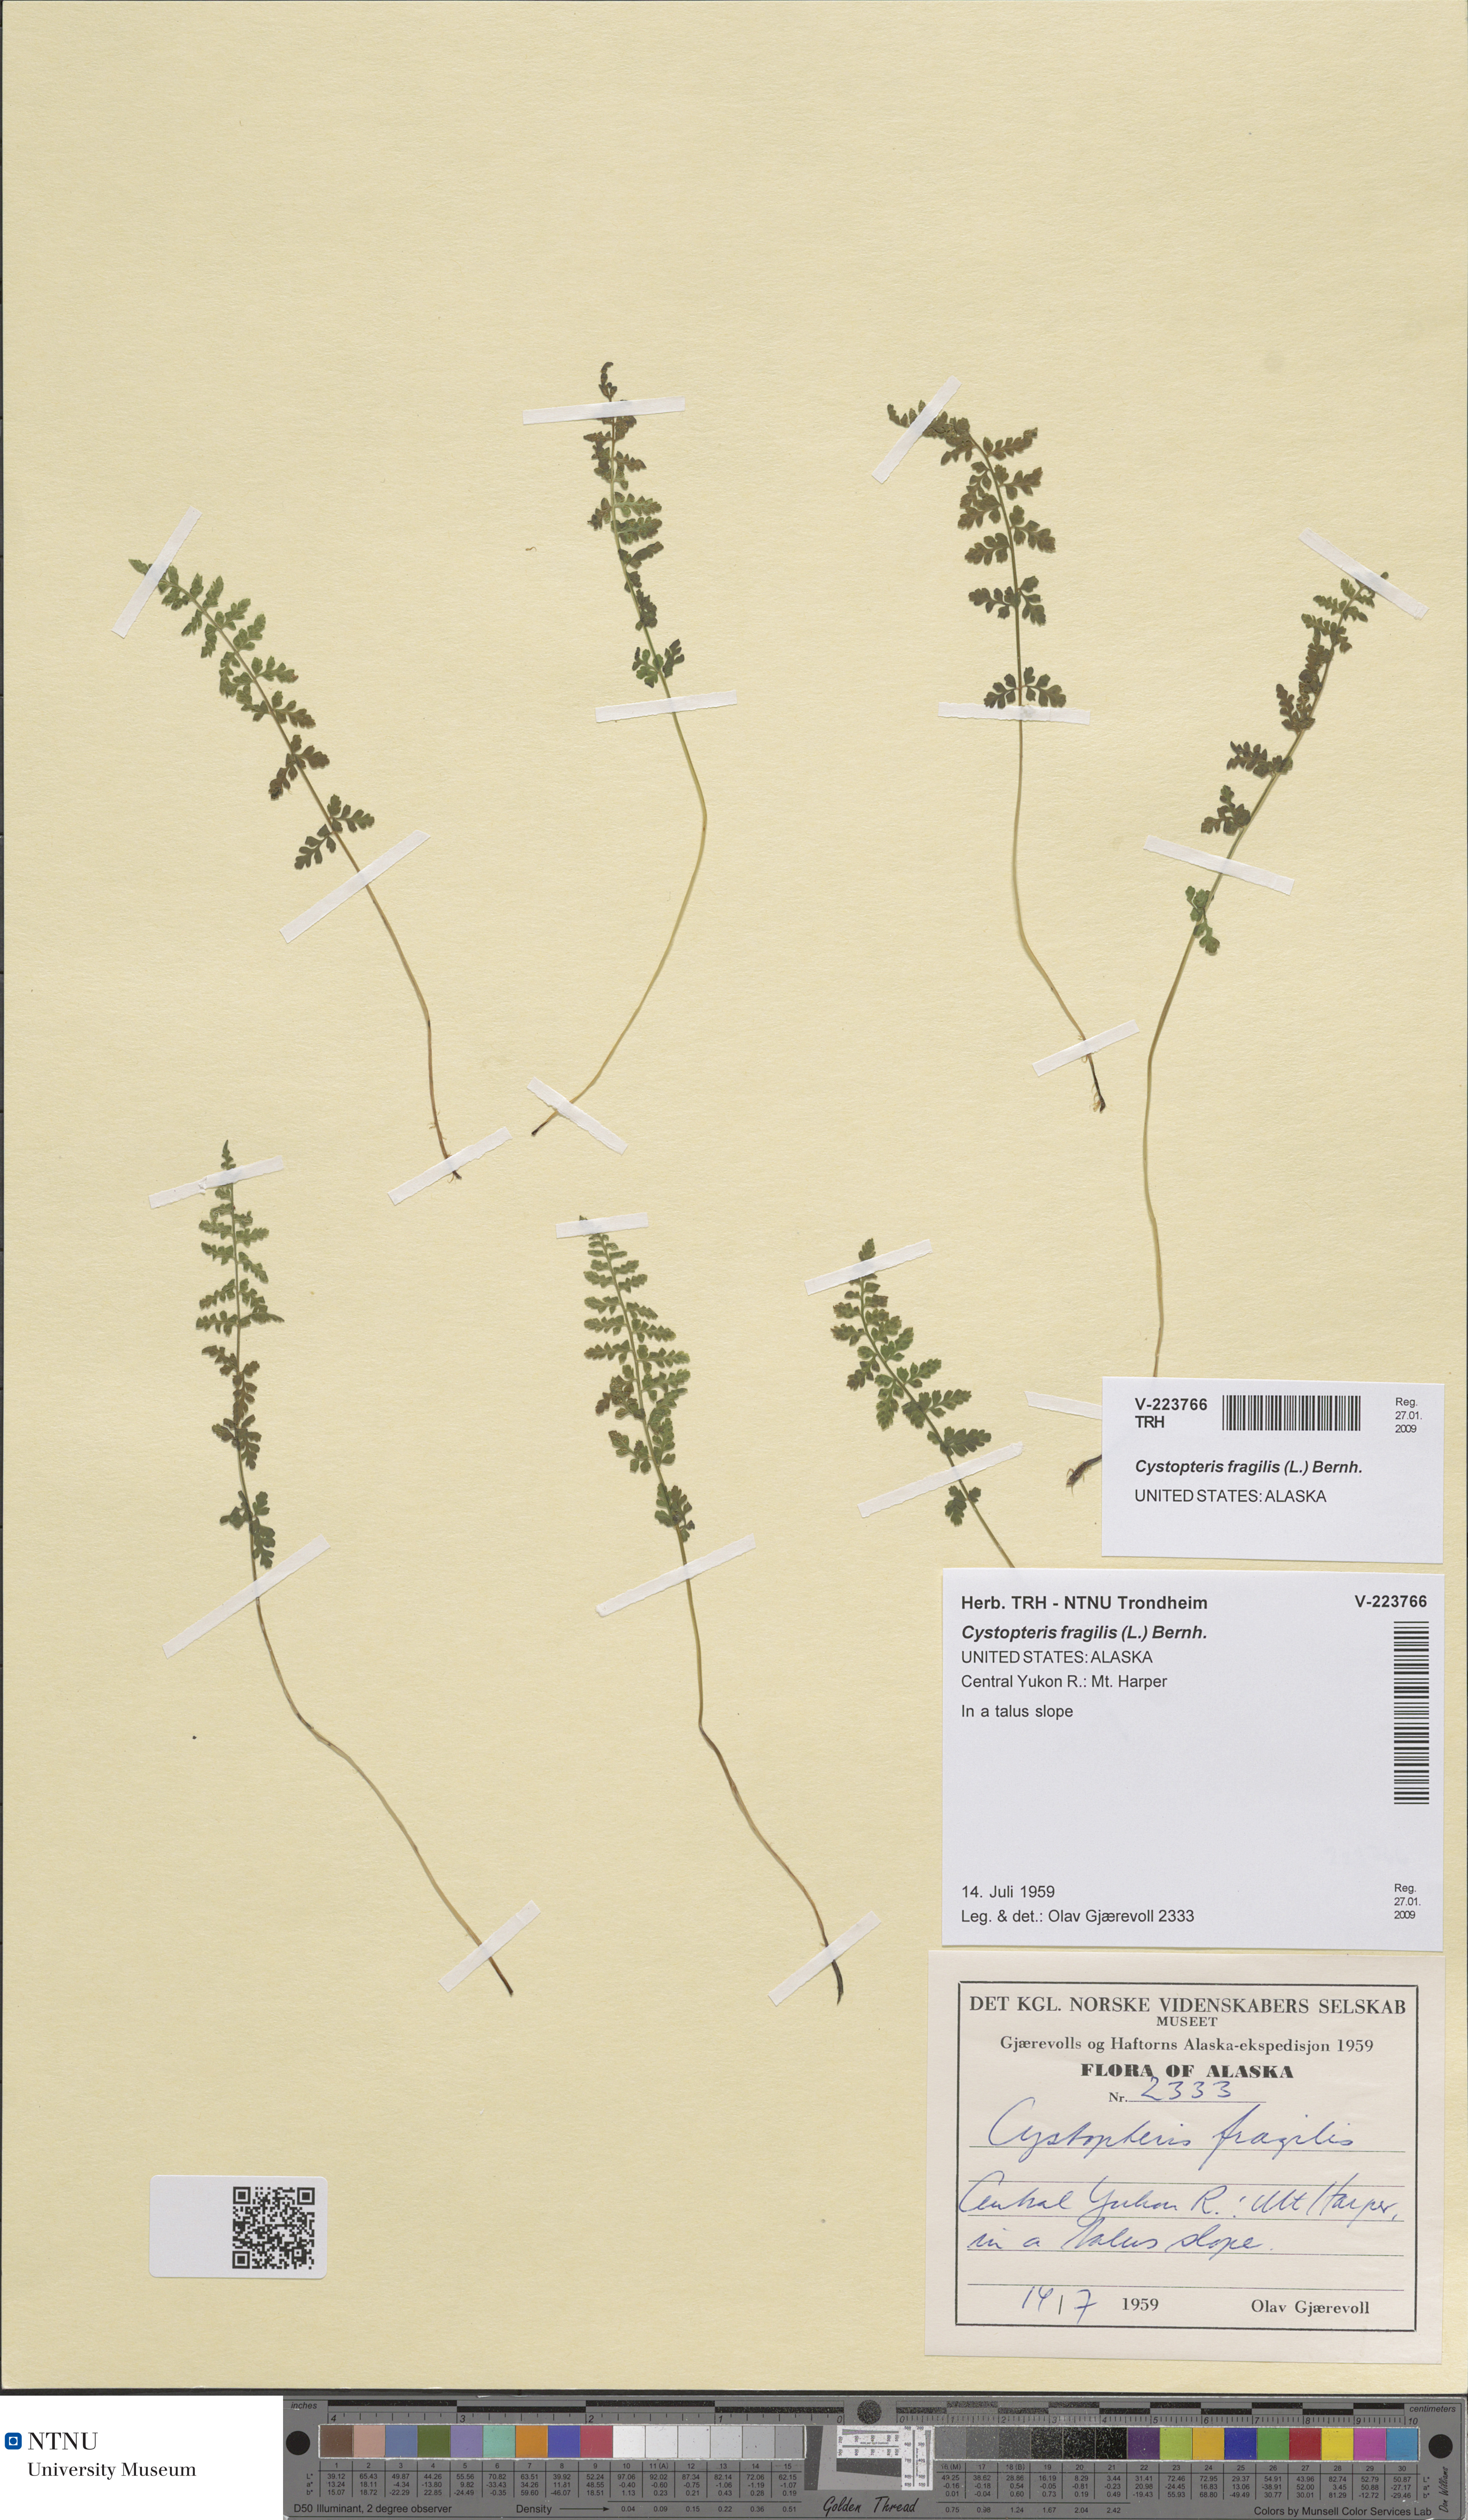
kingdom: Plantae
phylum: Tracheophyta
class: Polypodiopsida
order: Polypodiales
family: Cystopteridaceae
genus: Cystopteris
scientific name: Cystopteris fragilis
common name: Brittle bladder fern
